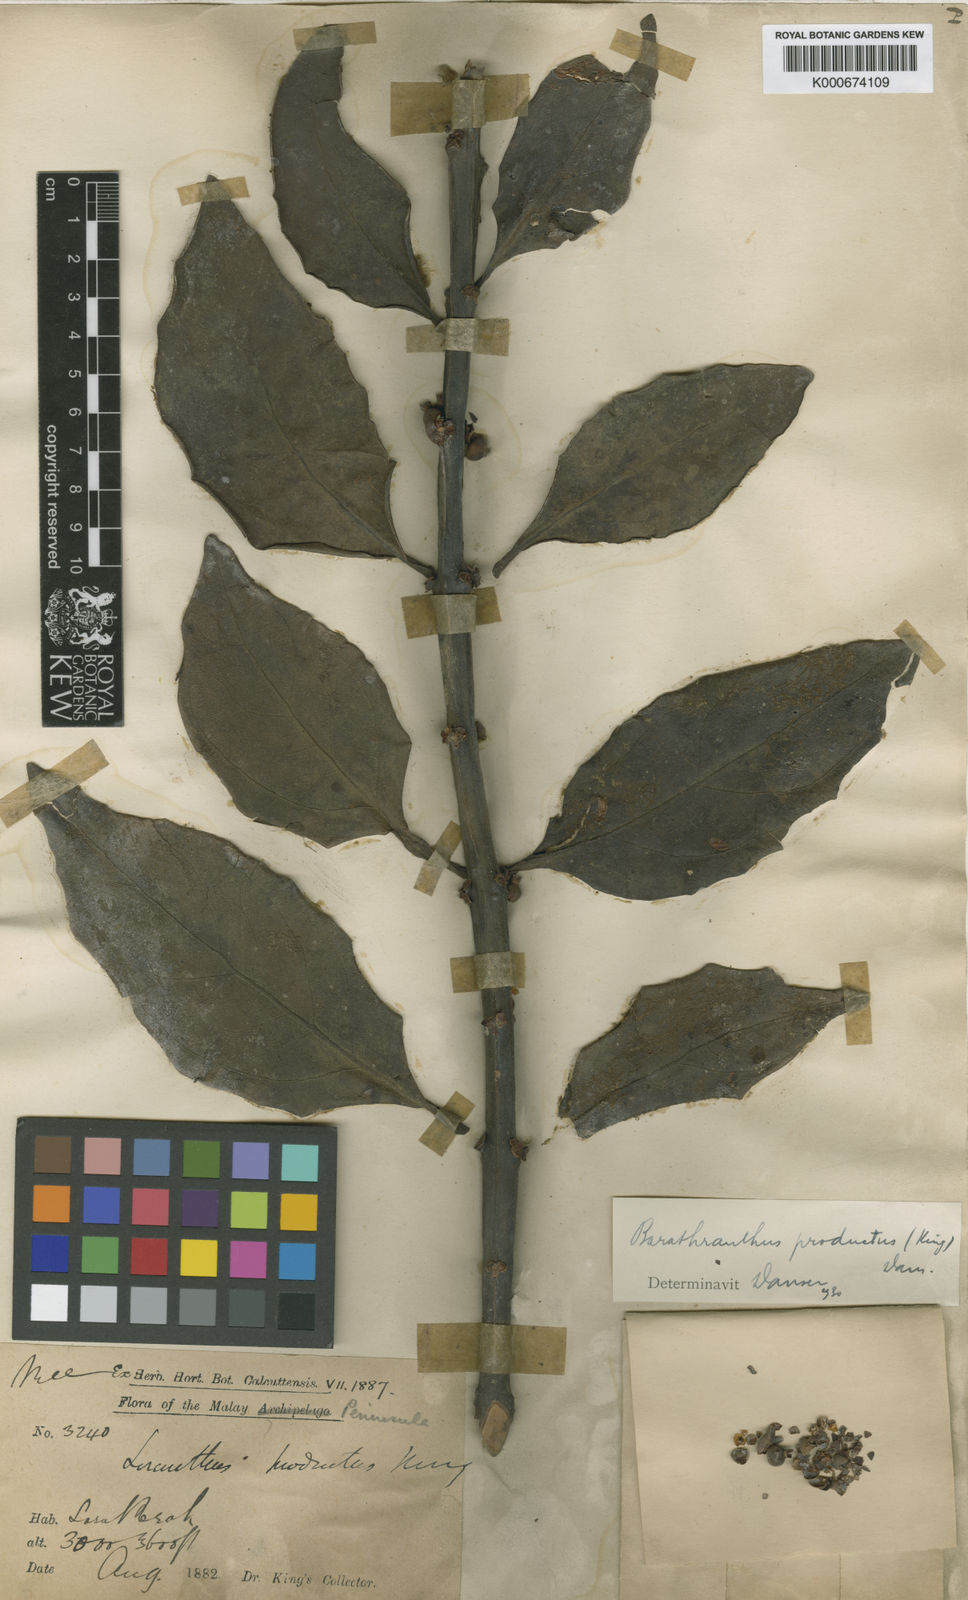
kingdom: Plantae
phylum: Tracheophyta
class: Magnoliopsida
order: Santalales
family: Loranthaceae
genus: Barathranthus
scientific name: Barathranthus
